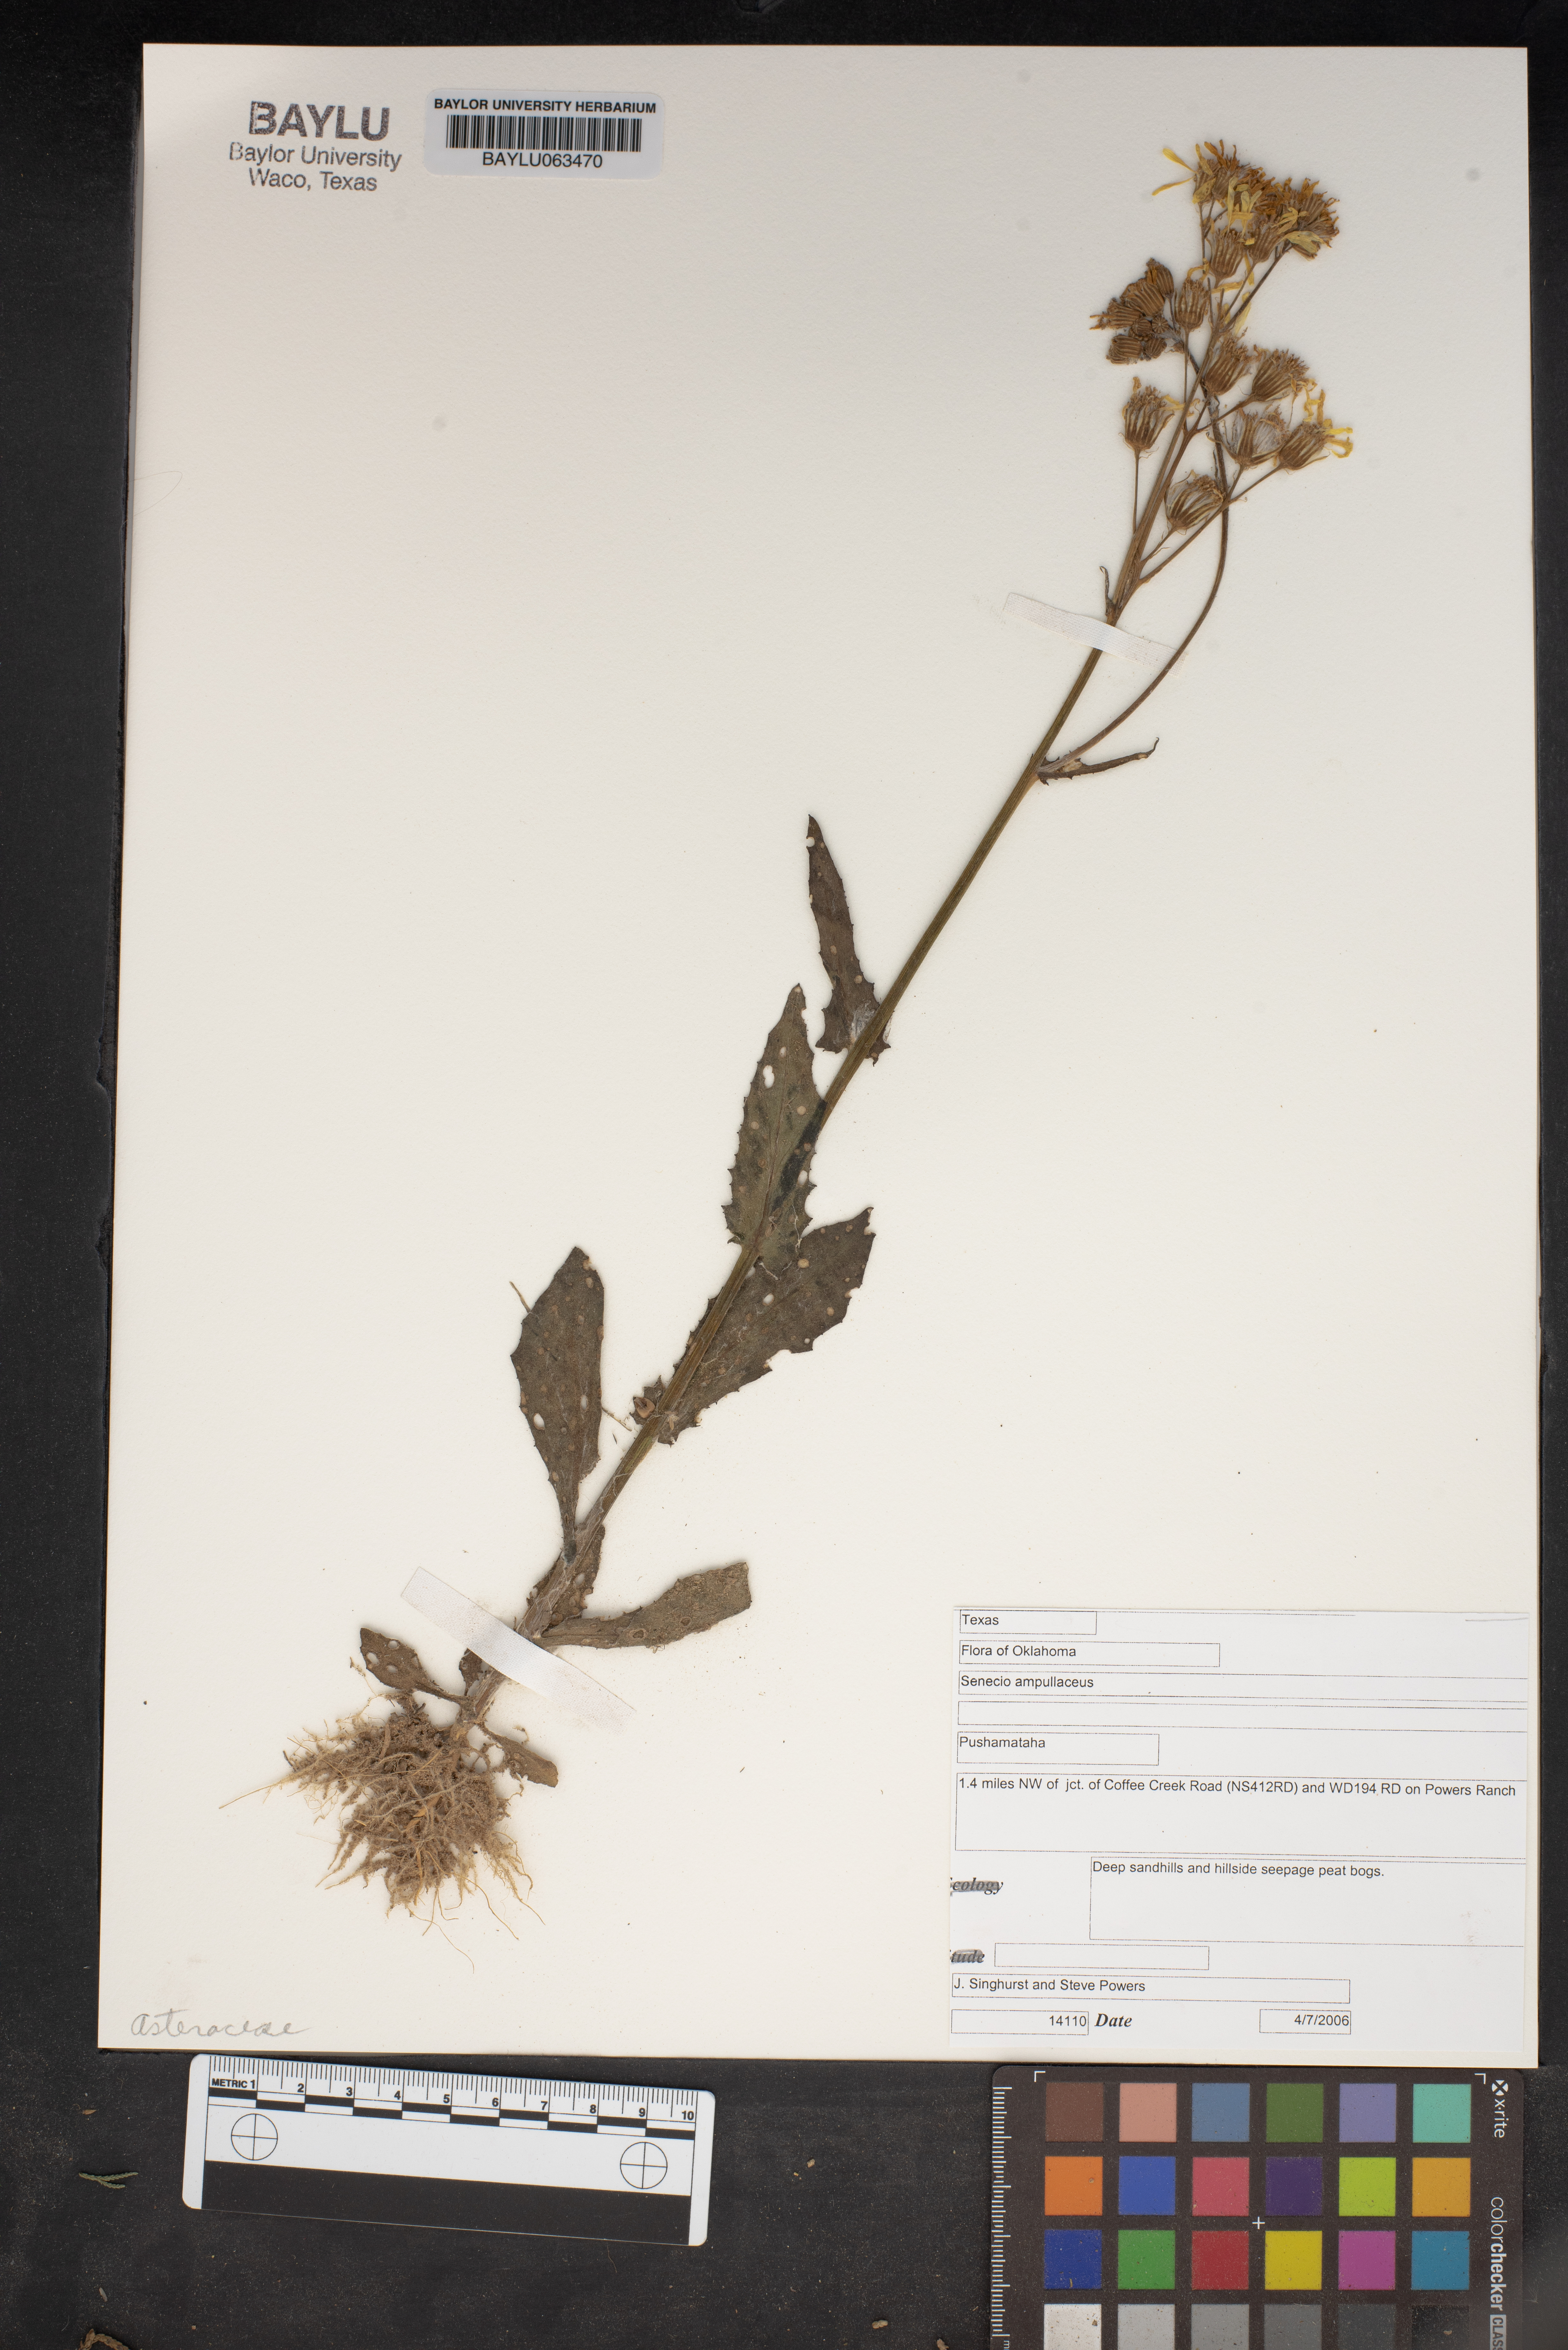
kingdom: Plantae
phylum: Tracheophyta
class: Magnoliopsida
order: Asterales
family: Asteraceae
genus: Senecio
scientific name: Senecio ampullaceus
